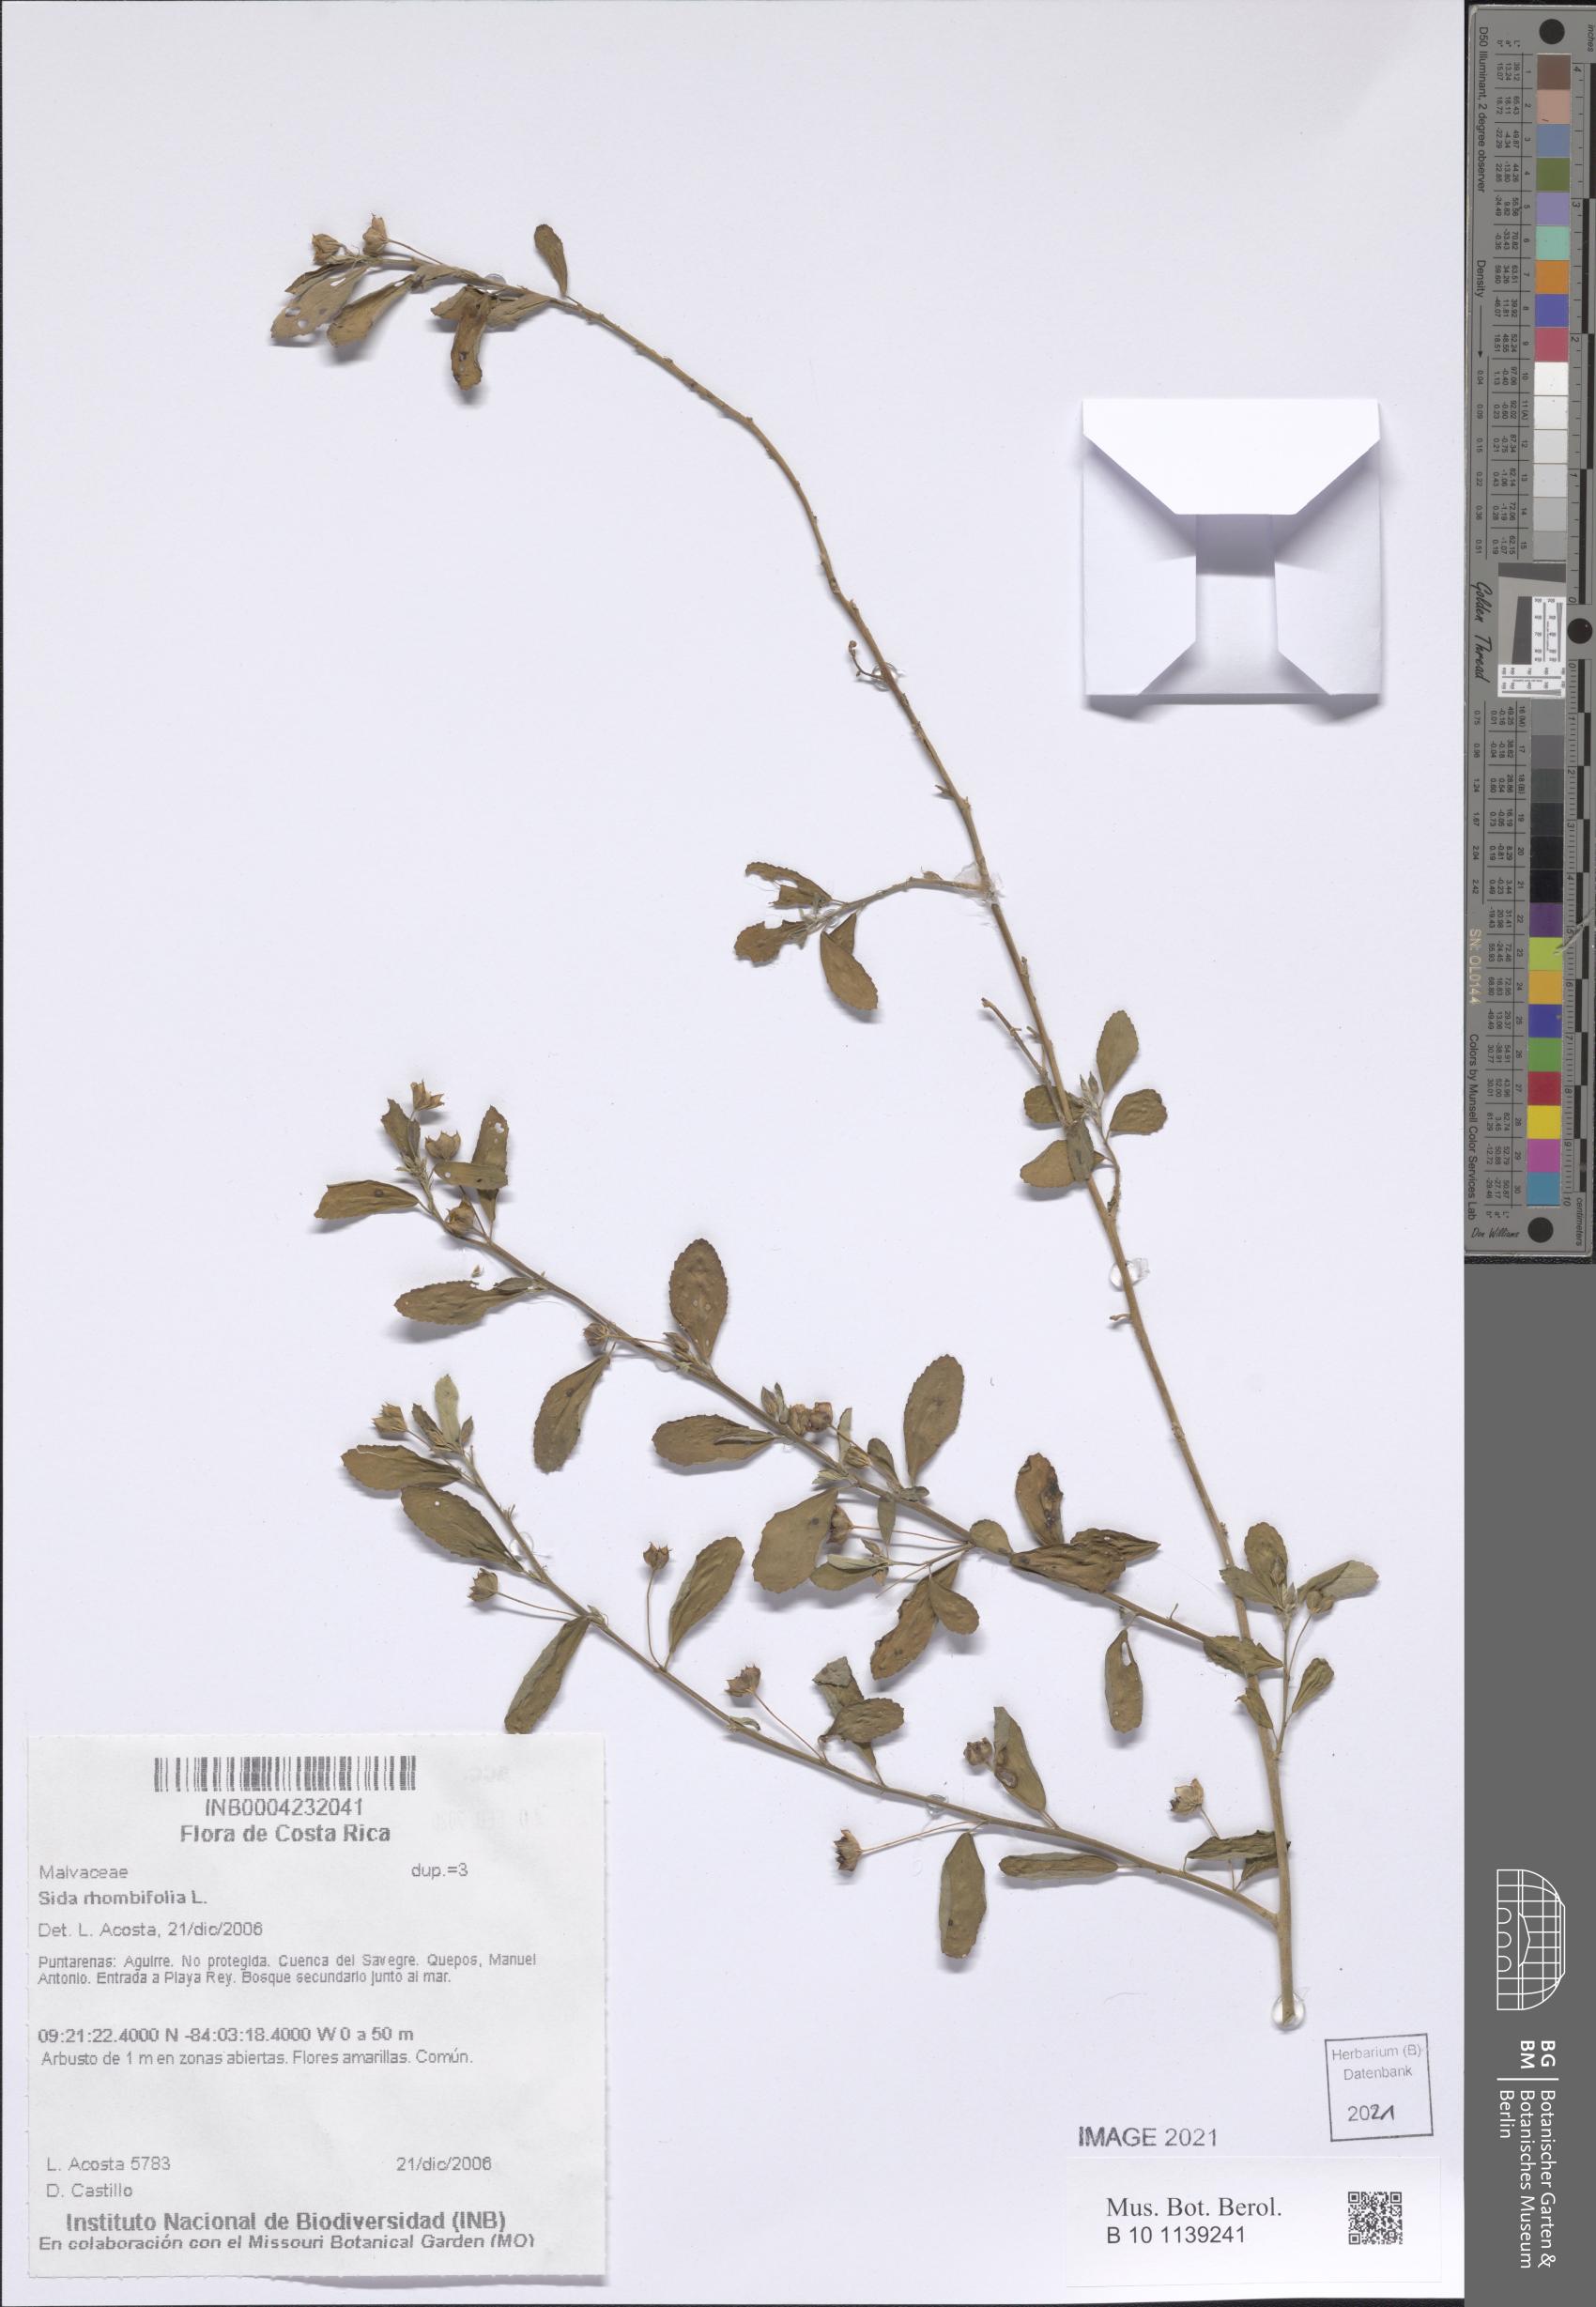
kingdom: Plantae
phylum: Tracheophyta
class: Magnoliopsida
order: Malvales
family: Malvaceae
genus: Sida
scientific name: Sida rhombifolia
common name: Queensland-hemp
